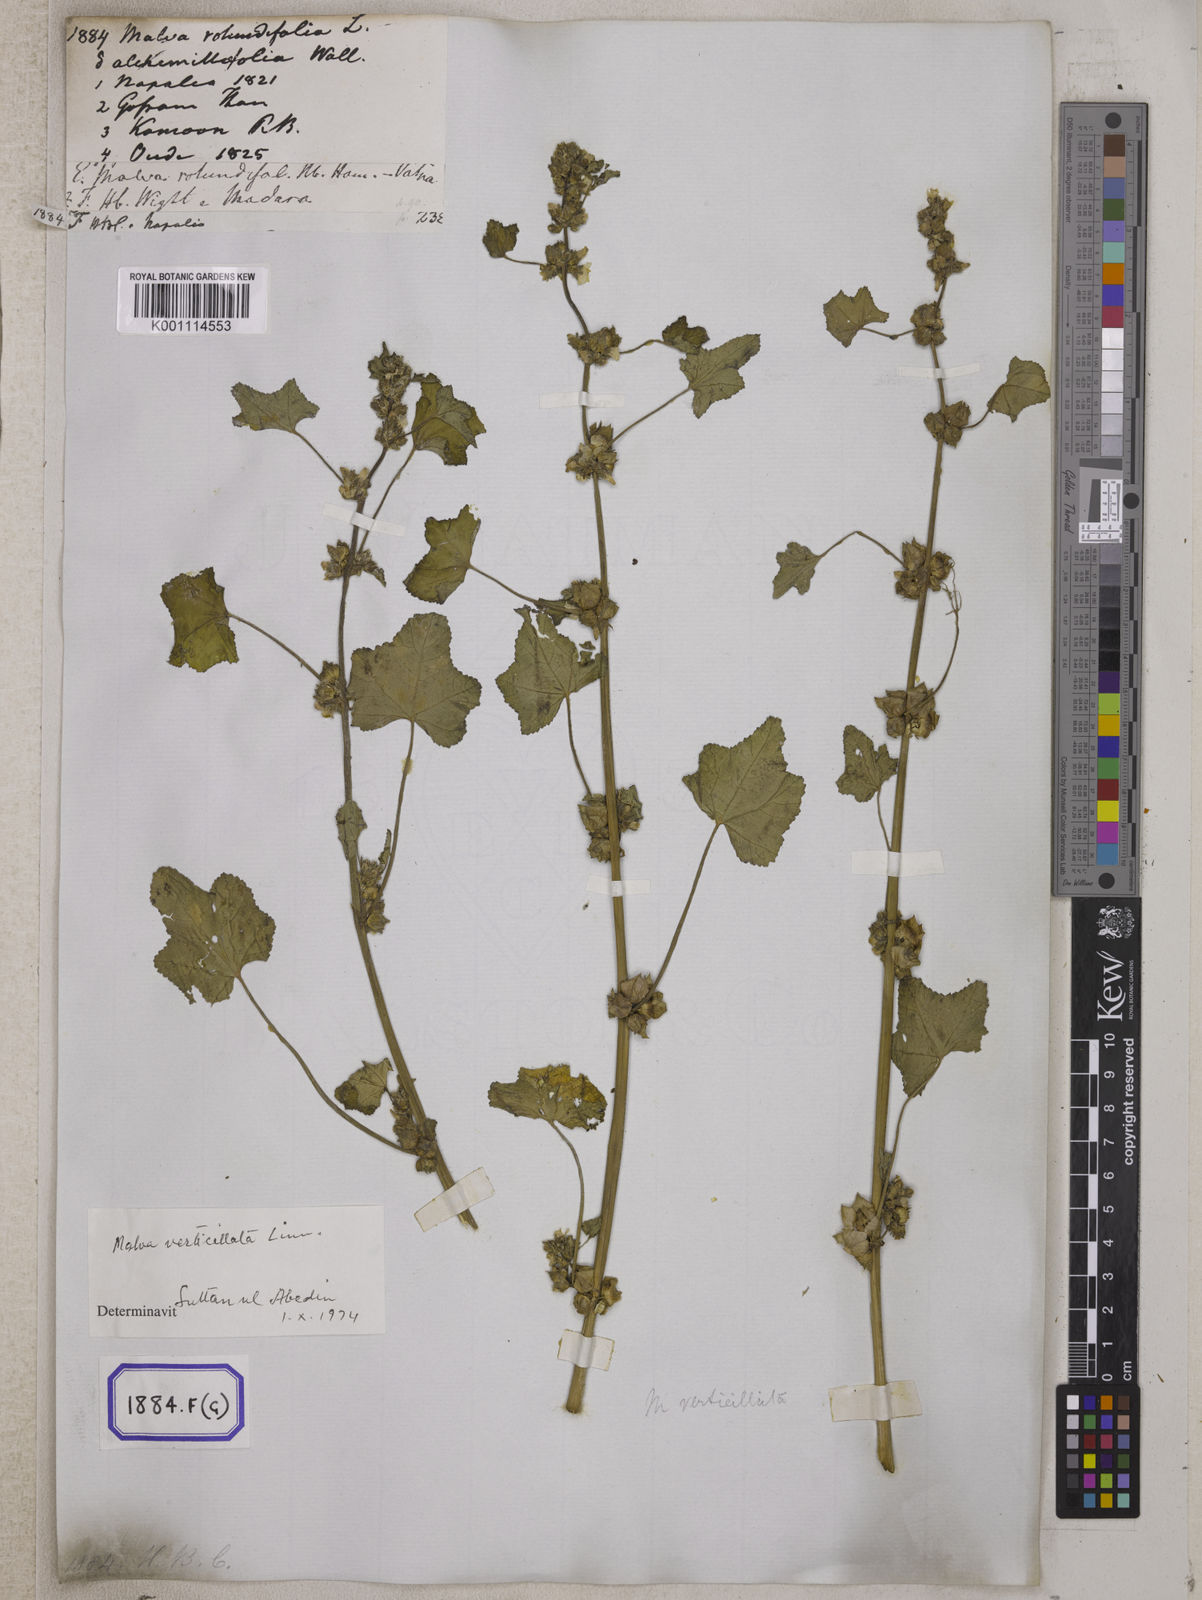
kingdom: Plantae
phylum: Tracheophyta
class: Magnoliopsida
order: Malvales
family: Malvaceae
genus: Malva
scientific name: Malva pusilla
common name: Small mallow
